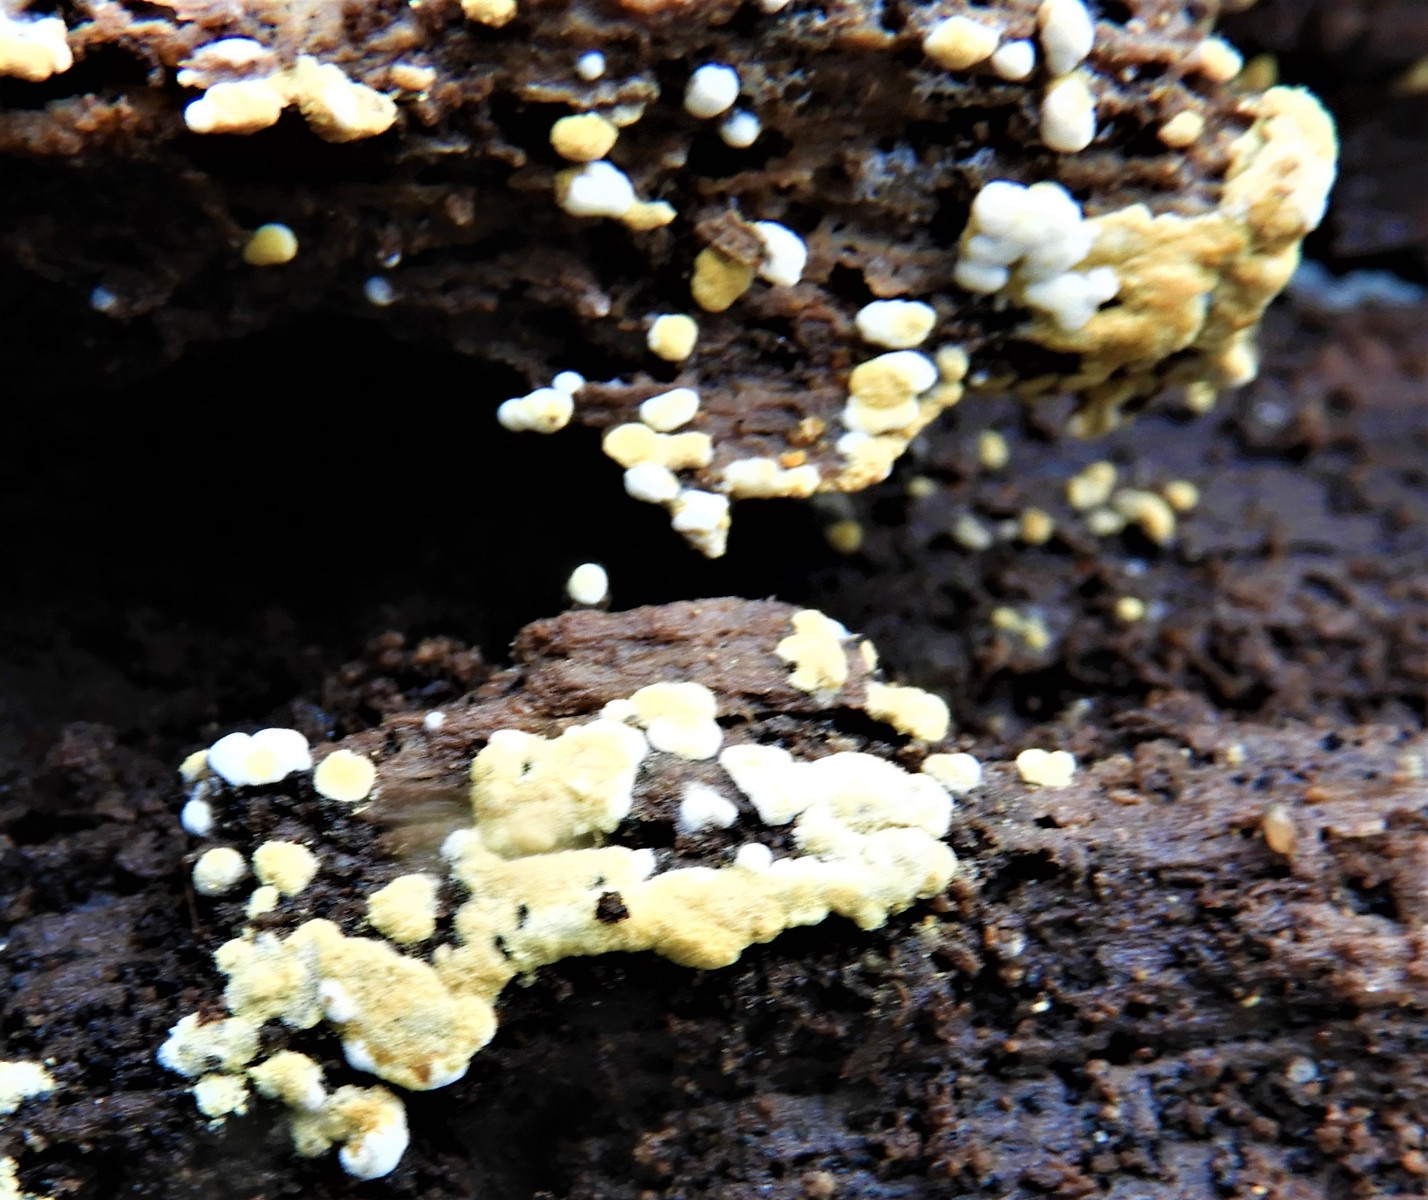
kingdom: Fungi
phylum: Basidiomycota
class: Agaricomycetes
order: Cantharellales
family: Botryobasidiaceae
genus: Botryobasidium
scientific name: Botryobasidium aureum
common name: gylden spindhinde
